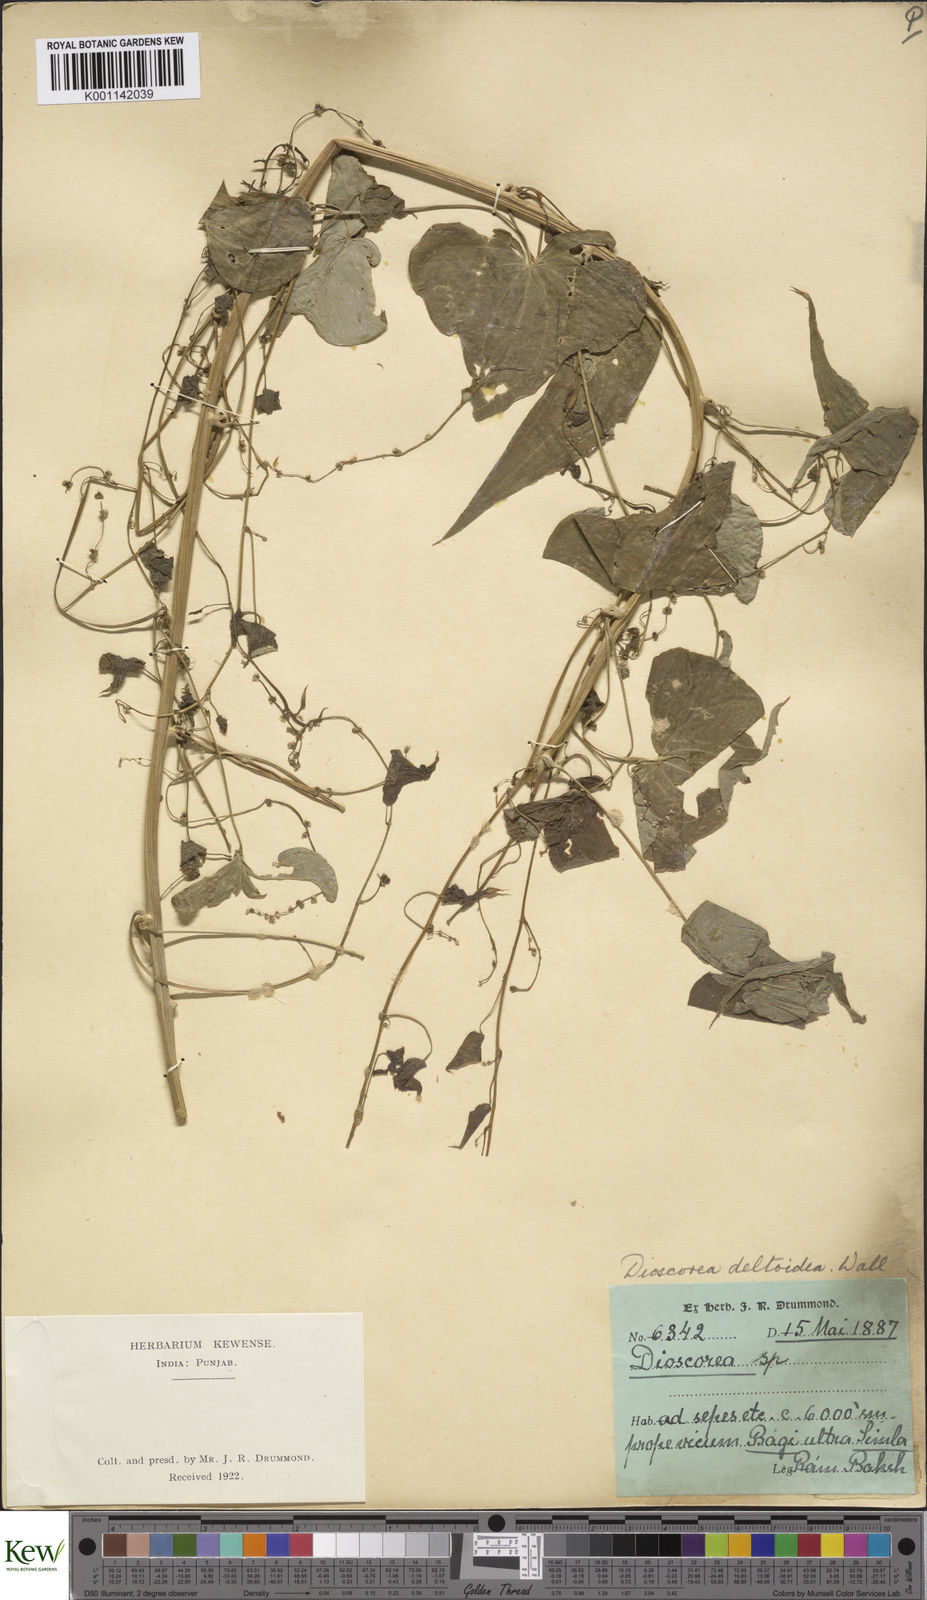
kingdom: Plantae
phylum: Tracheophyta
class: Liliopsida
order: Dioscoreales
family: Dioscoreaceae
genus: Dioscorea
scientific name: Dioscorea deltoidea
